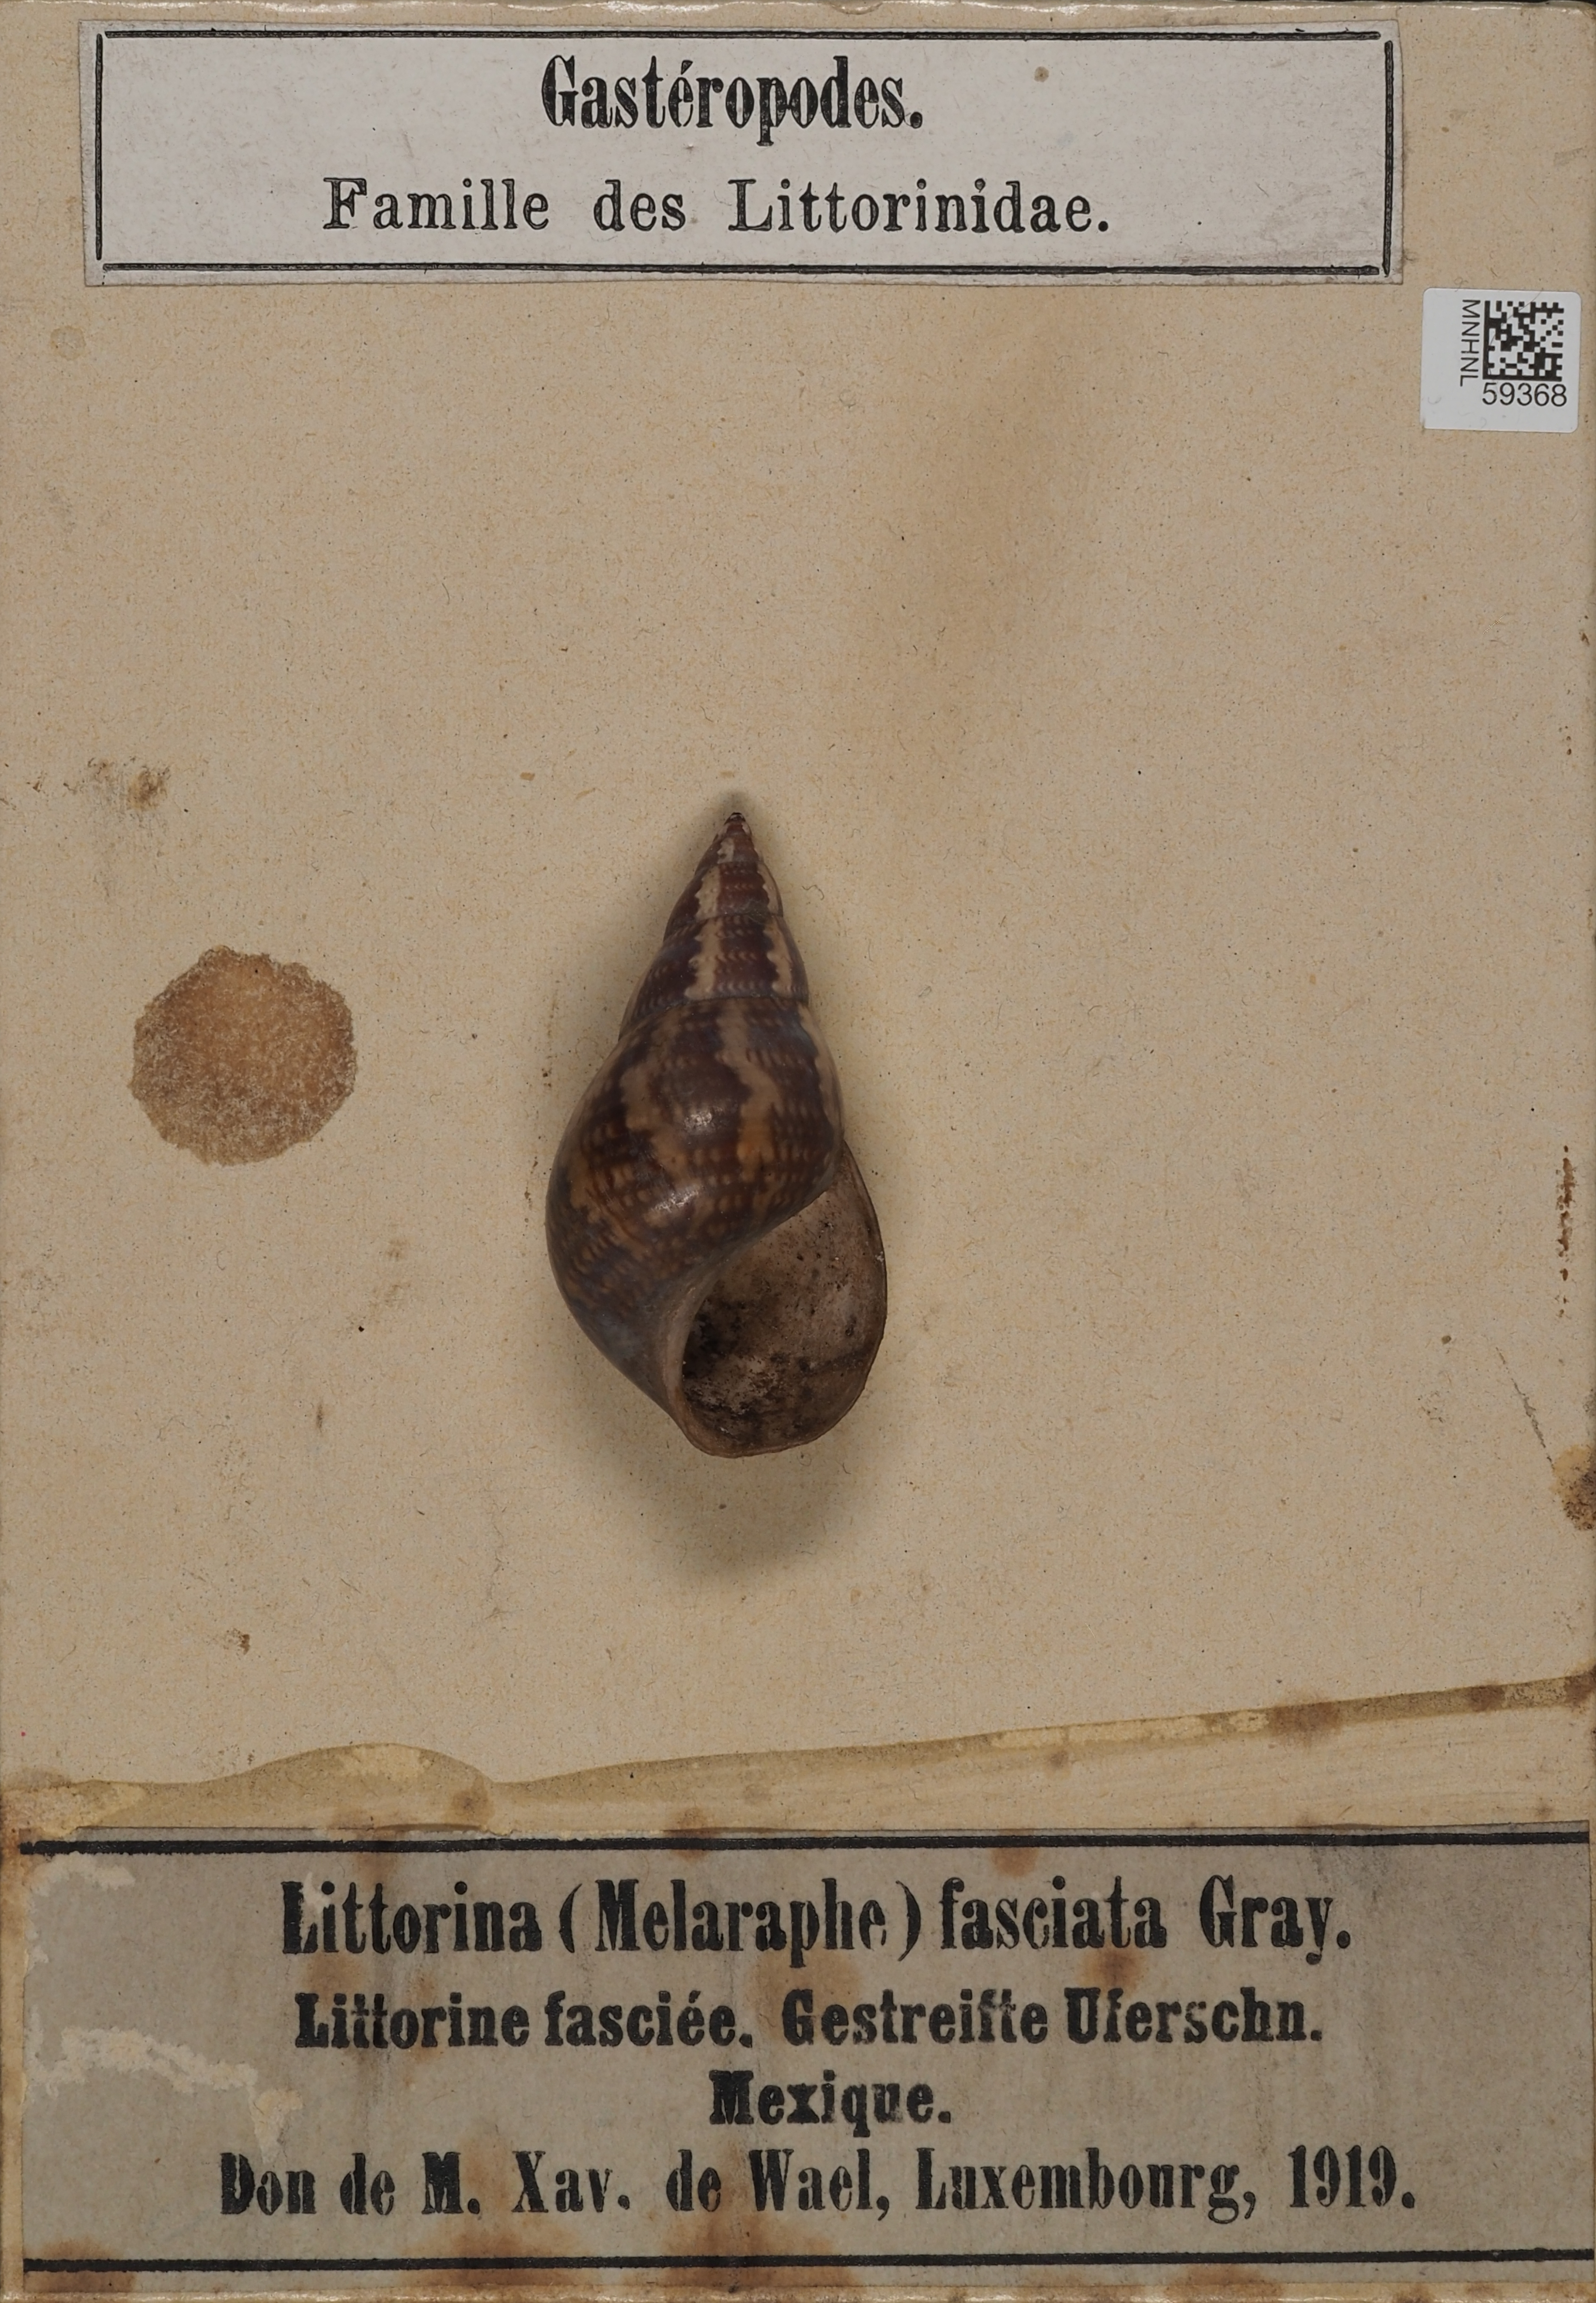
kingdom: Animalia
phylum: Mollusca
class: Gastropoda
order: Littorinimorpha
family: Littorinidae
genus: Littoraria
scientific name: Littoraria zebra
